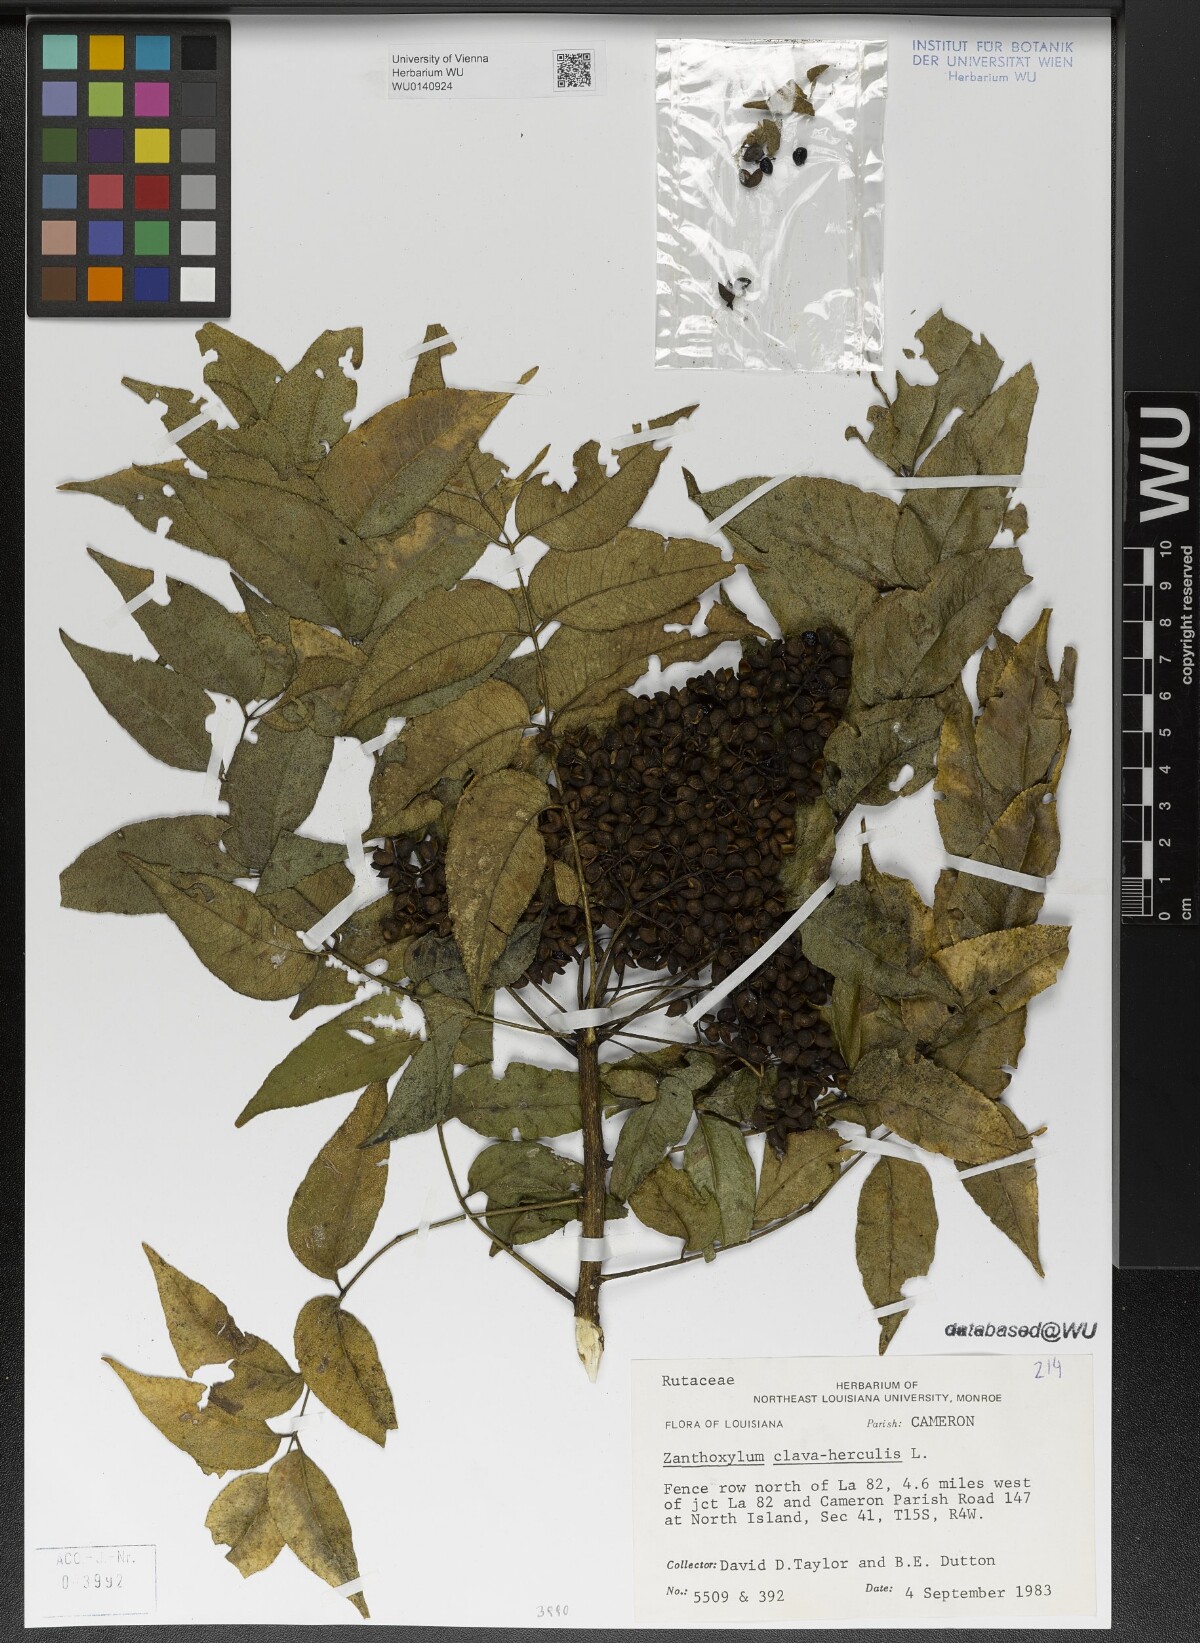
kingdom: Plantae
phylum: Tracheophyta
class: Magnoliopsida
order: Sapindales
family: Rutaceae
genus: Zanthoxylum
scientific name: Zanthoxylum clava-herculis
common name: Hercules'-club
